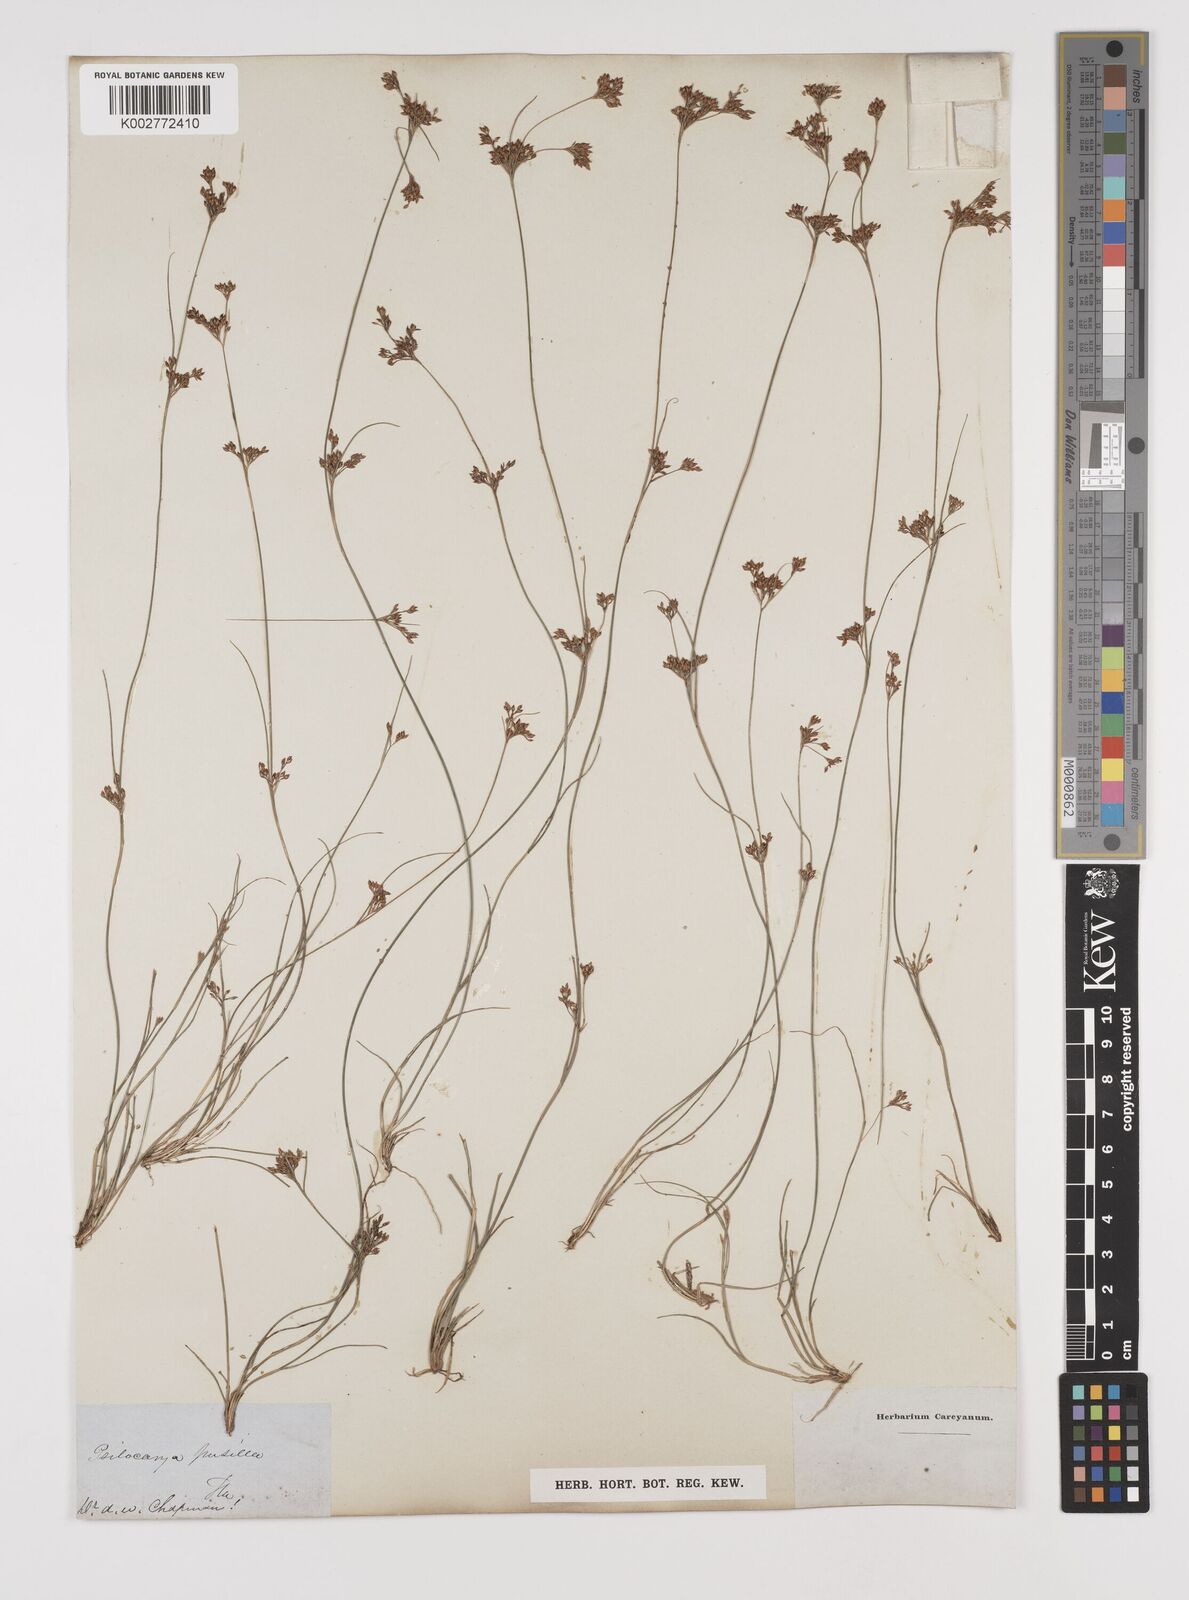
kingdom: Plantae
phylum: Tracheophyta
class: Liliopsida
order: Poales
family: Cyperaceae
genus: Rhynchospora
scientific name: Rhynchospora intermixta
